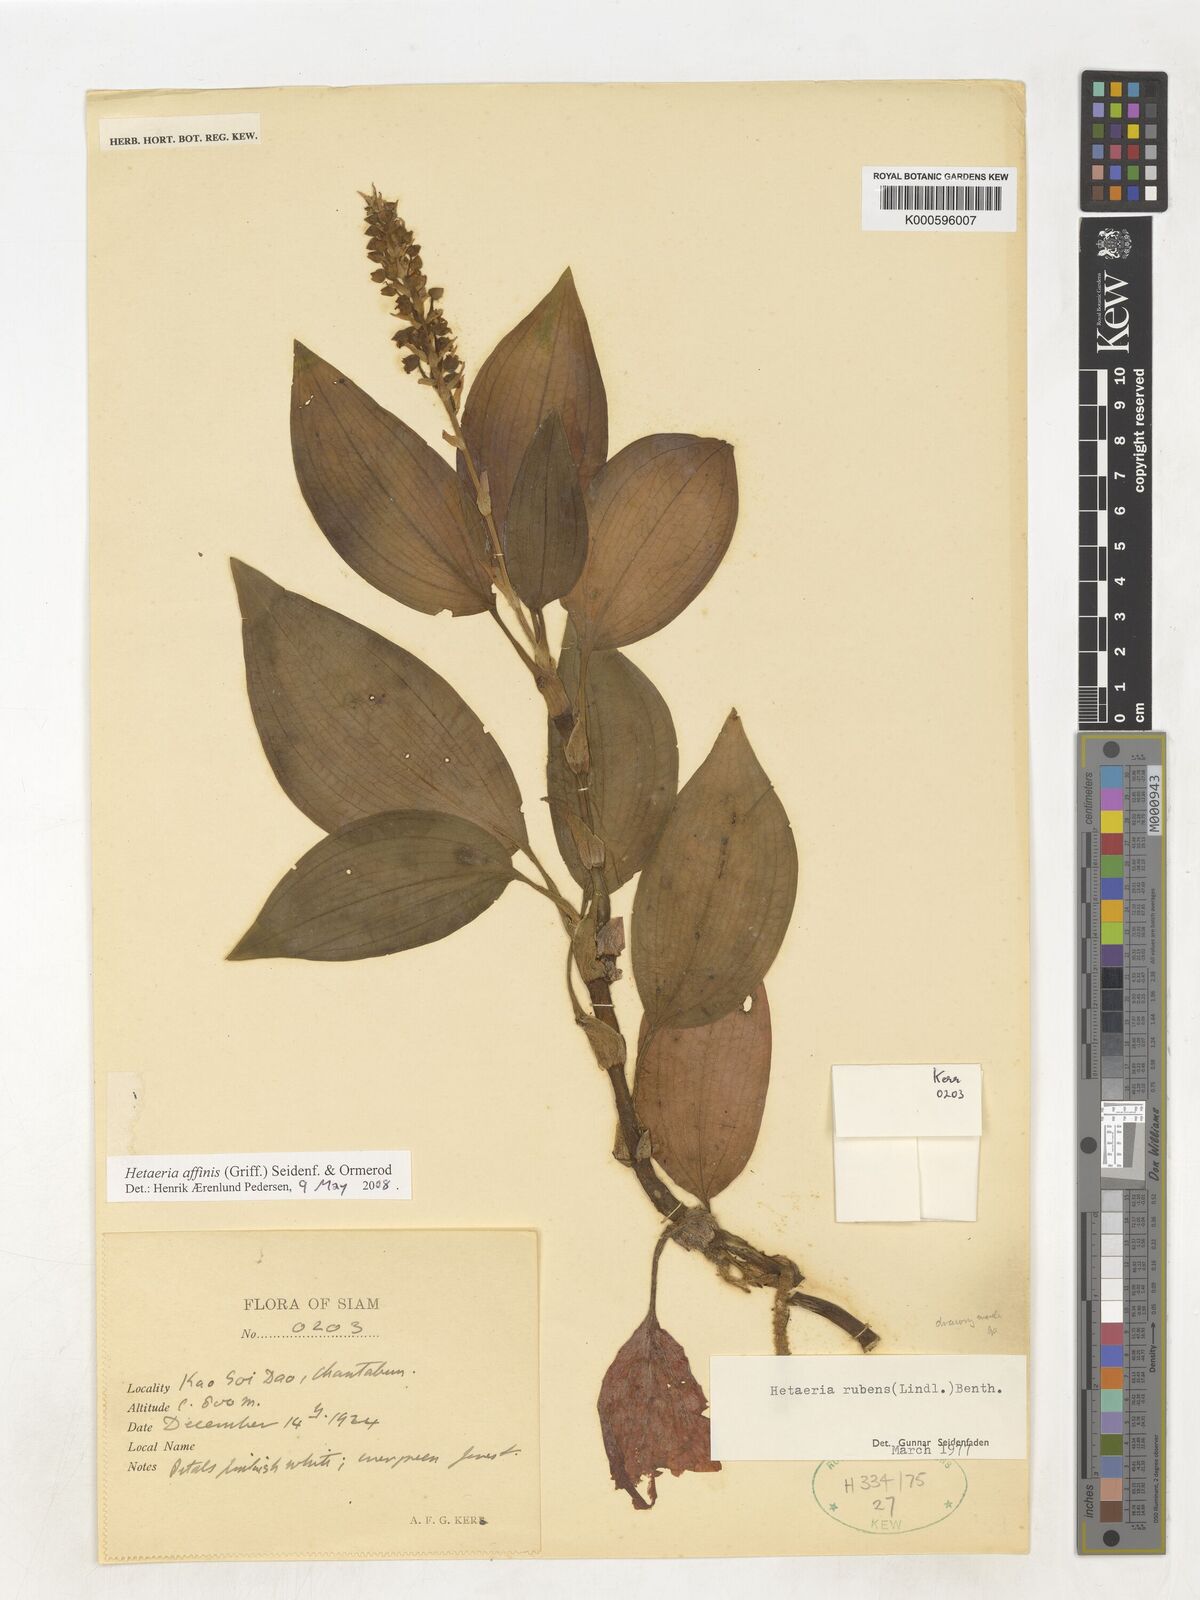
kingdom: Plantae
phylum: Tracheophyta
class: Liliopsida
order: Asparagales
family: Orchidaceae
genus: Hetaeria
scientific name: Hetaeria affinis
